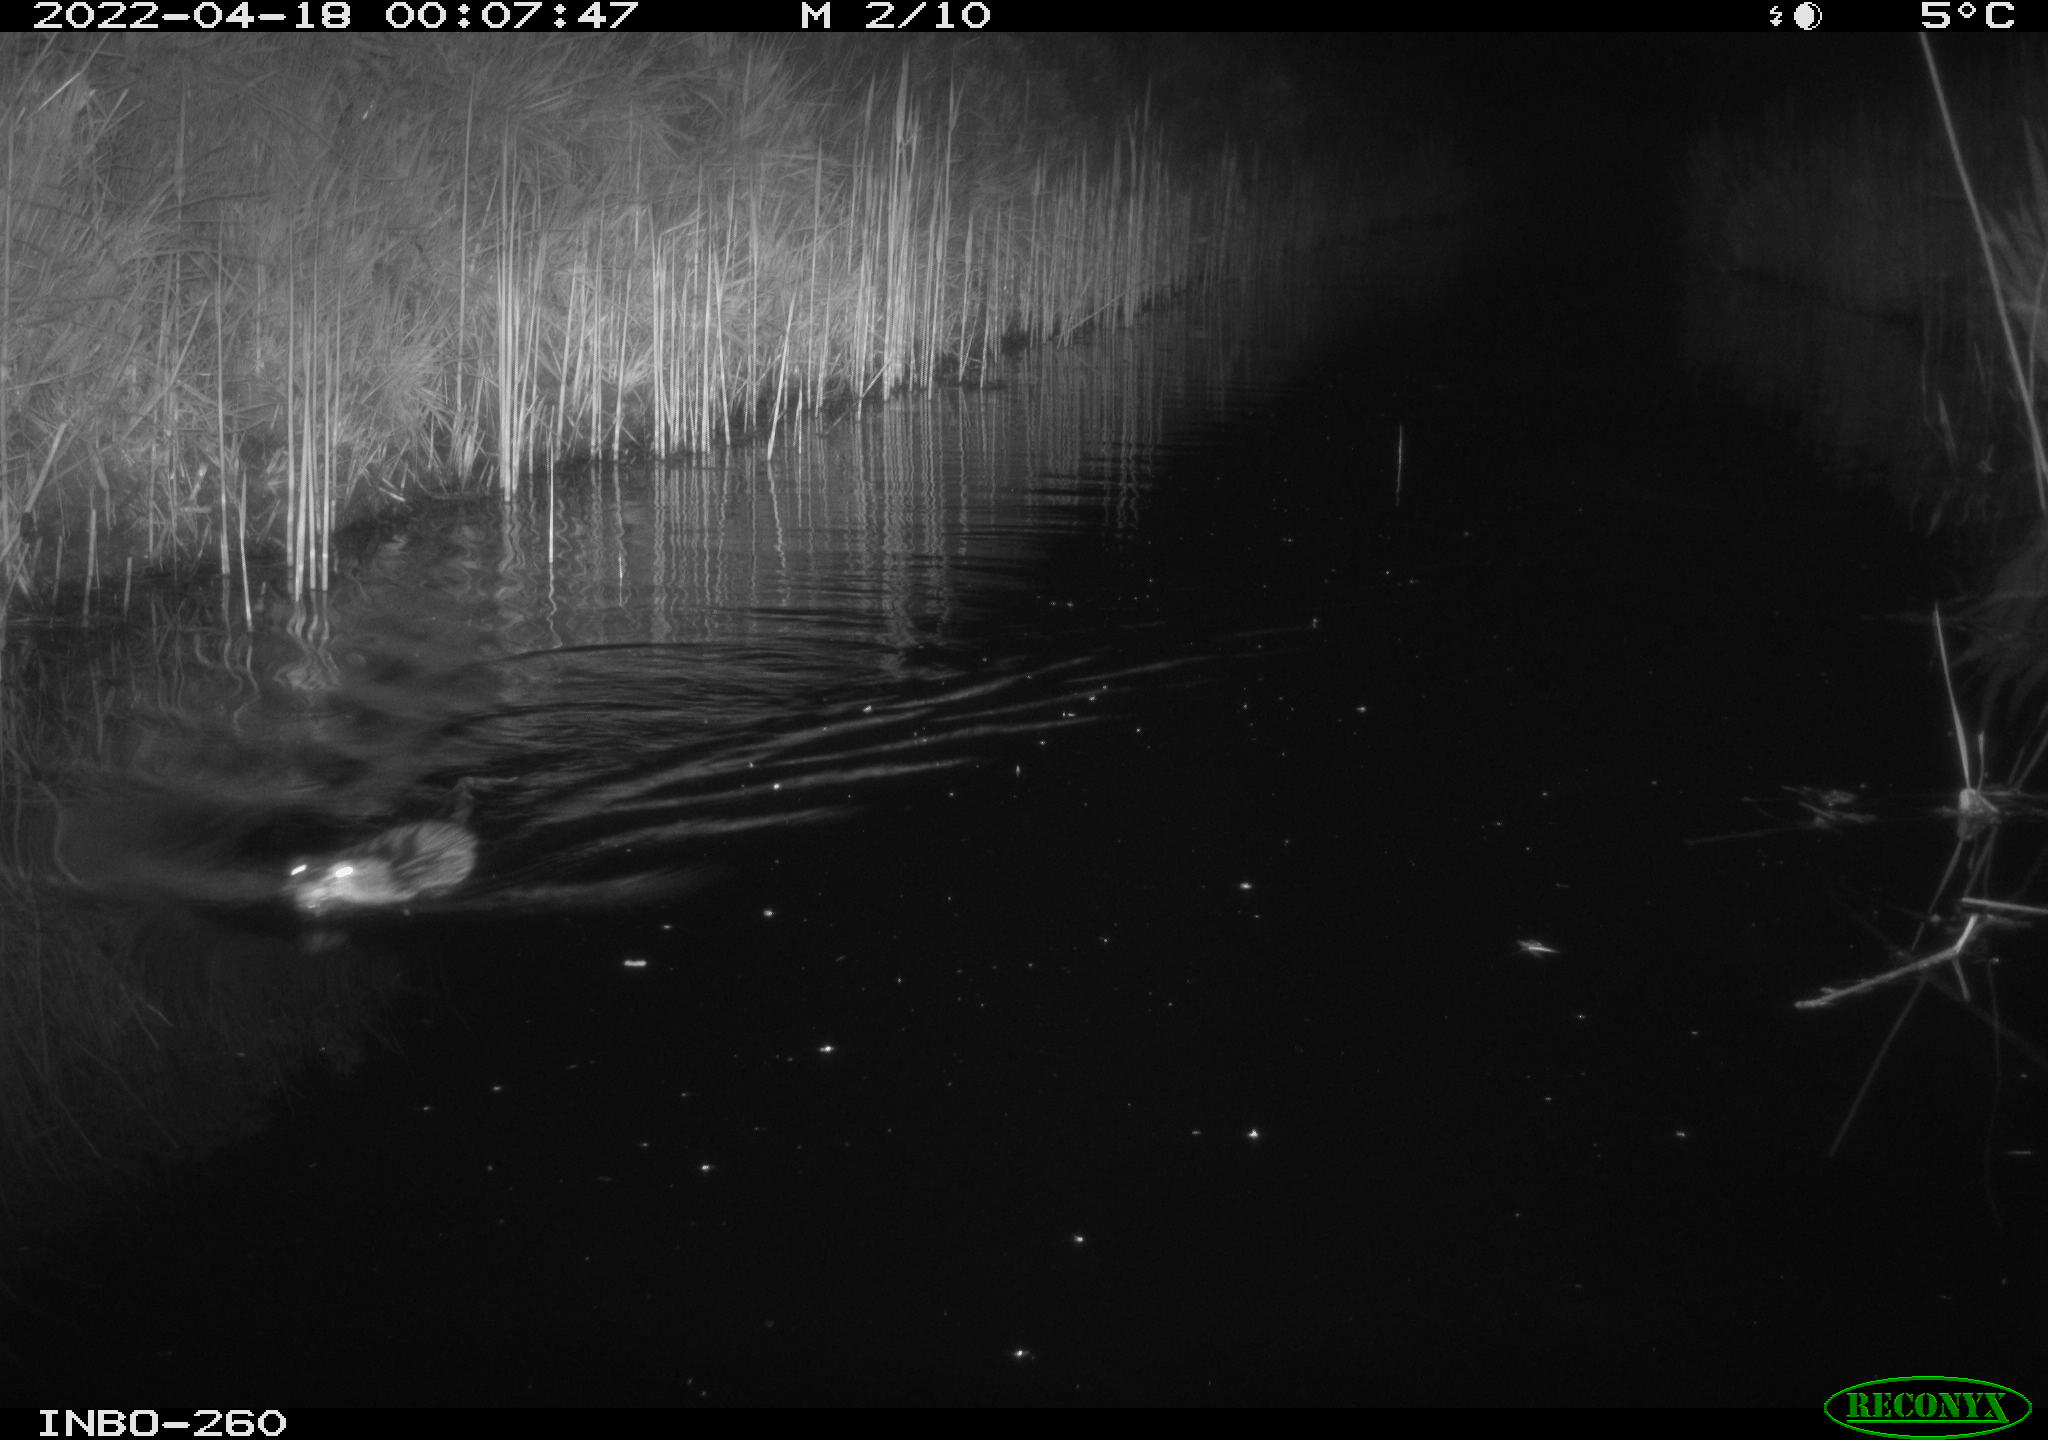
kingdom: Animalia
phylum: Chordata
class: Mammalia
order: Rodentia
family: Cricetidae
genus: Ondatra
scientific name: Ondatra zibethicus
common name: Muskrat
